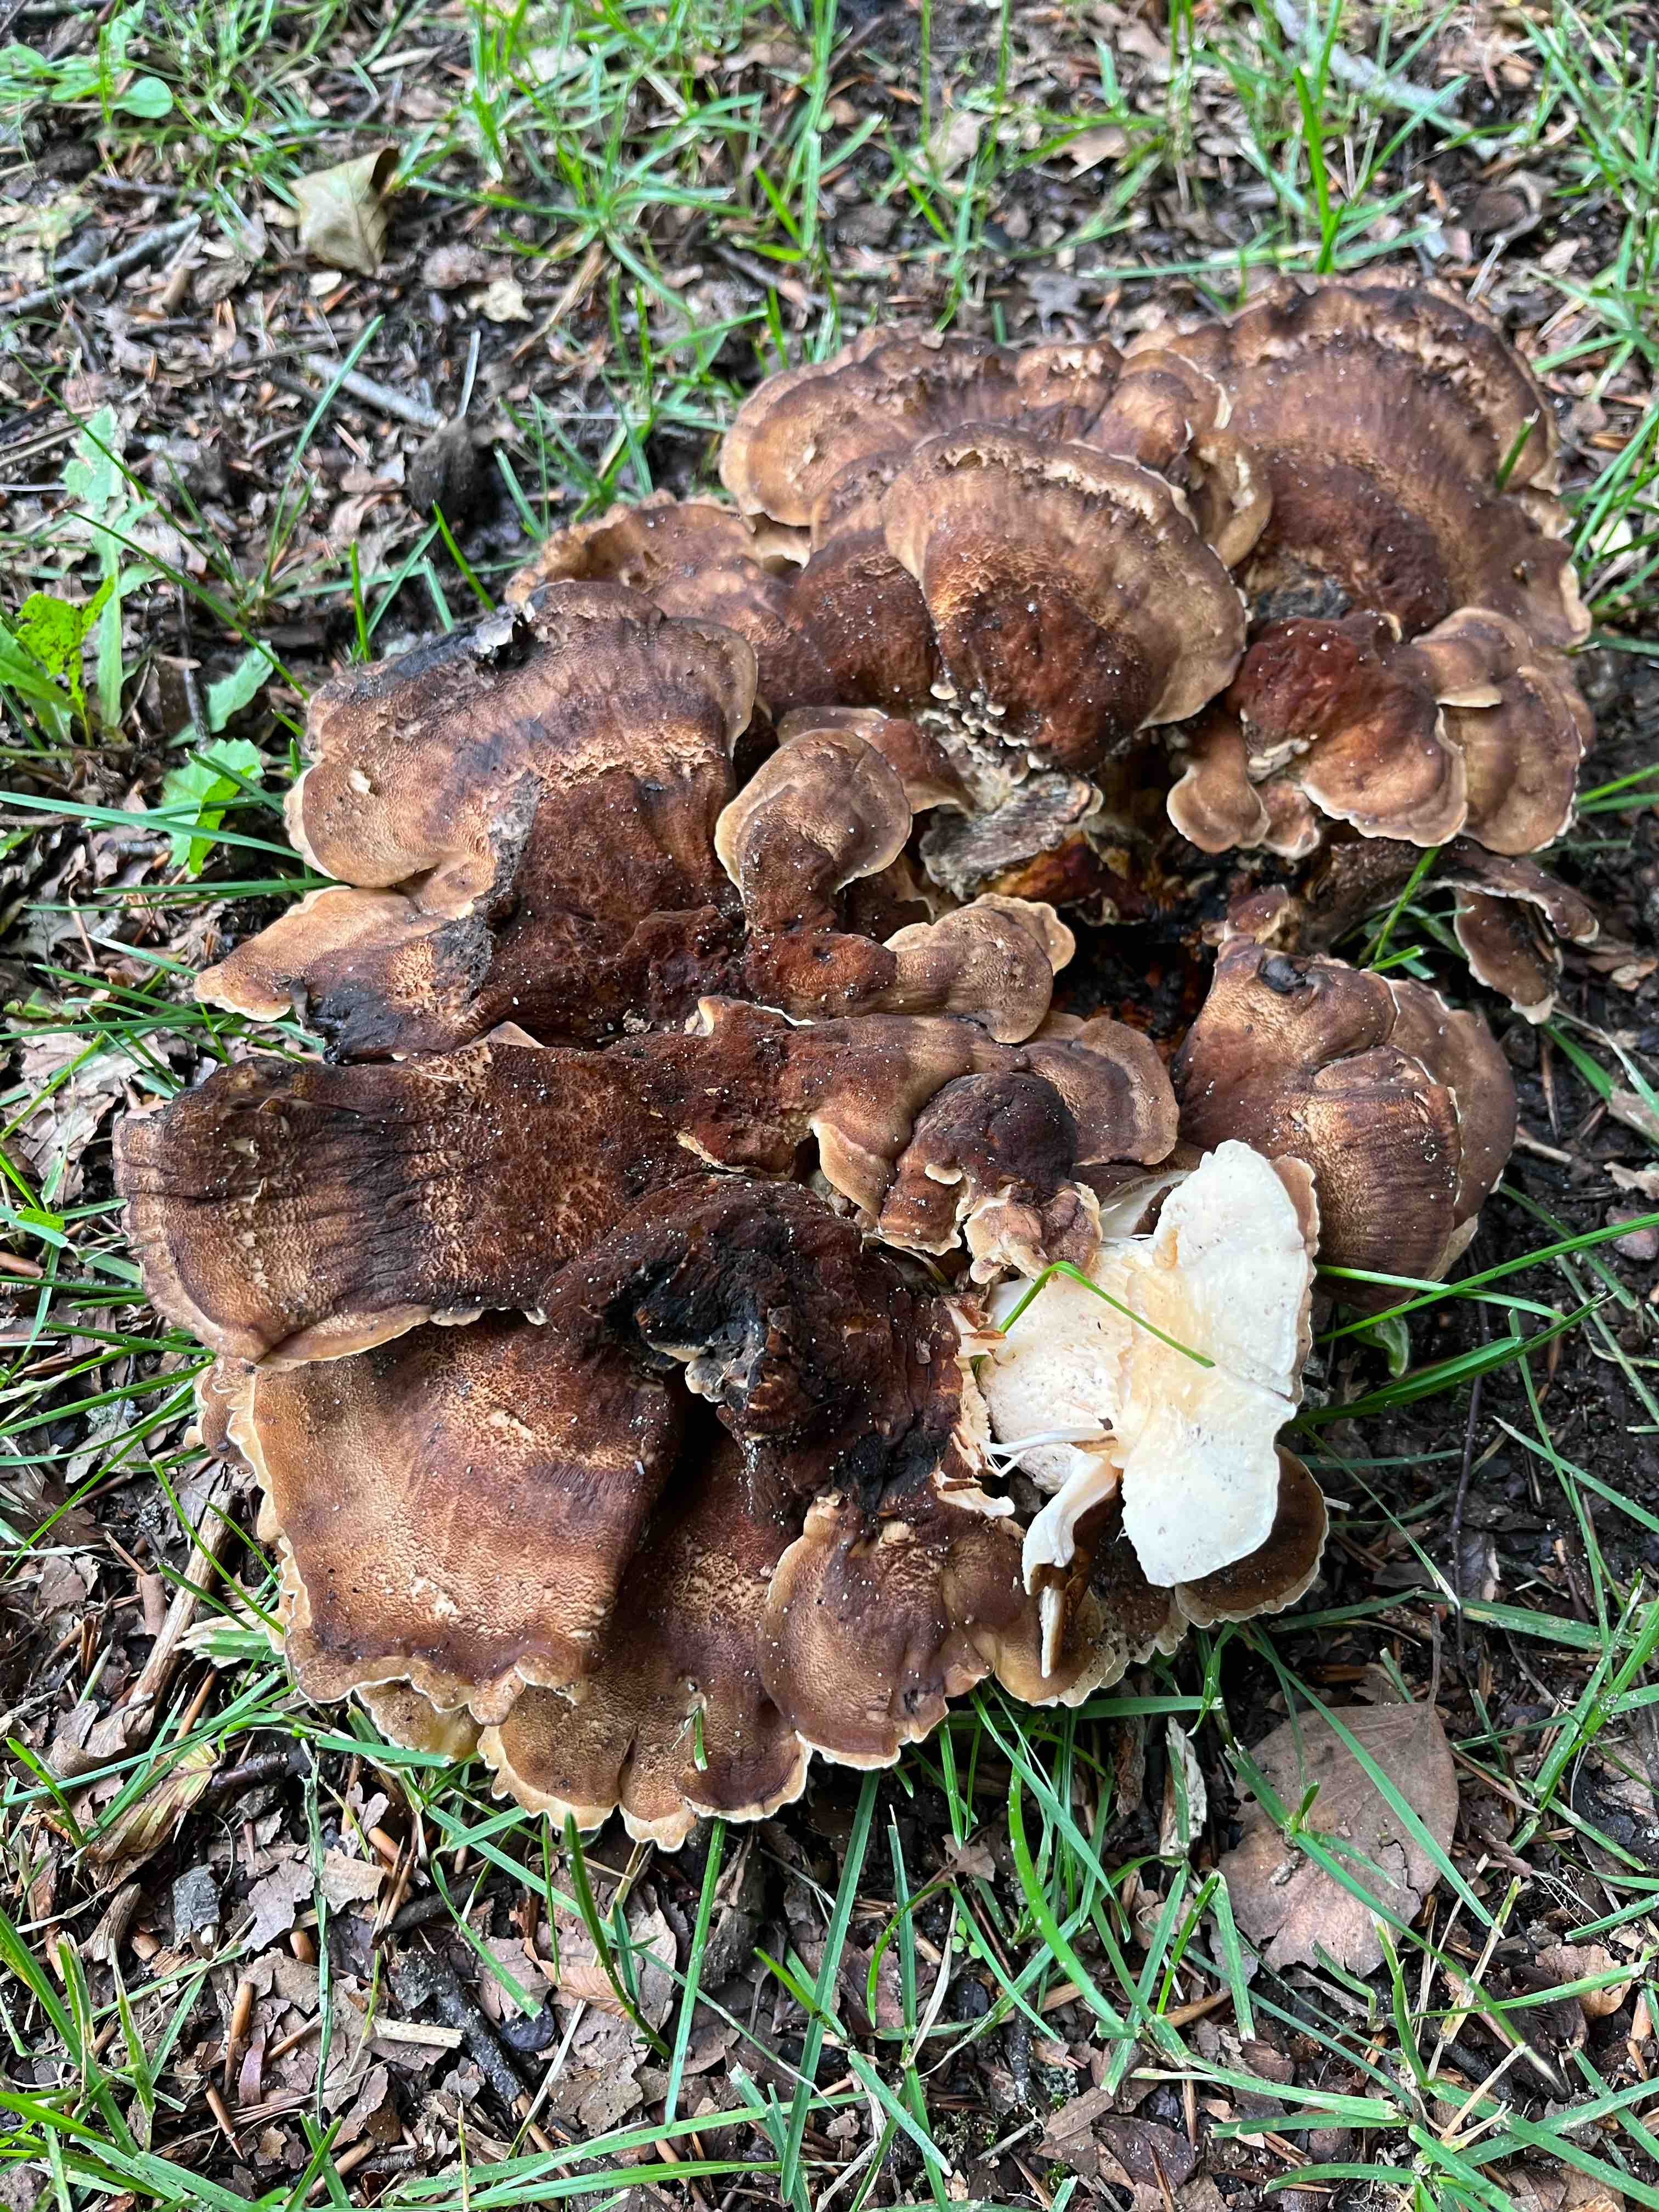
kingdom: Fungi
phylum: Basidiomycota
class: Agaricomycetes
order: Polyporales
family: Meripilaceae
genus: Meripilus
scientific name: Meripilus giganteus
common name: kæmpeporesvamp
